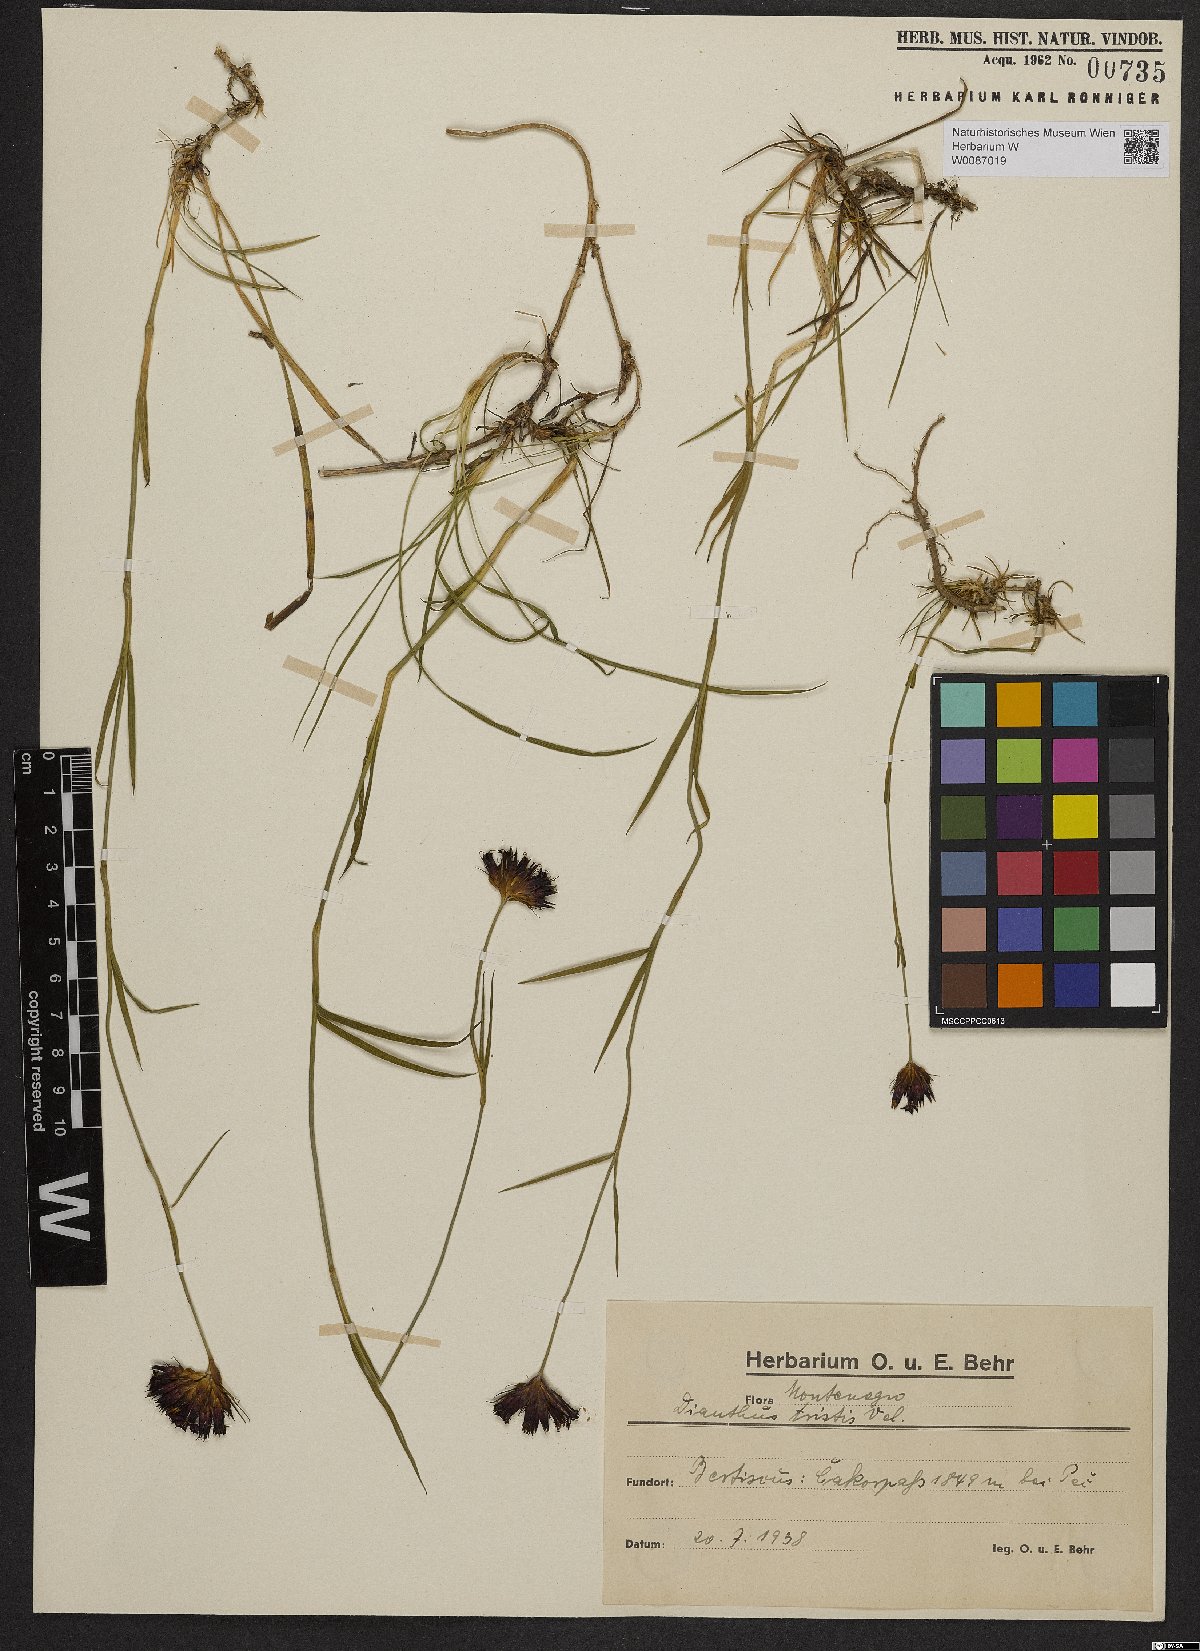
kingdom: Plantae
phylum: Tracheophyta
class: Magnoliopsida
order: Caryophyllales
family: Caryophyllaceae
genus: Dianthus
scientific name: Dianthus pancicii
